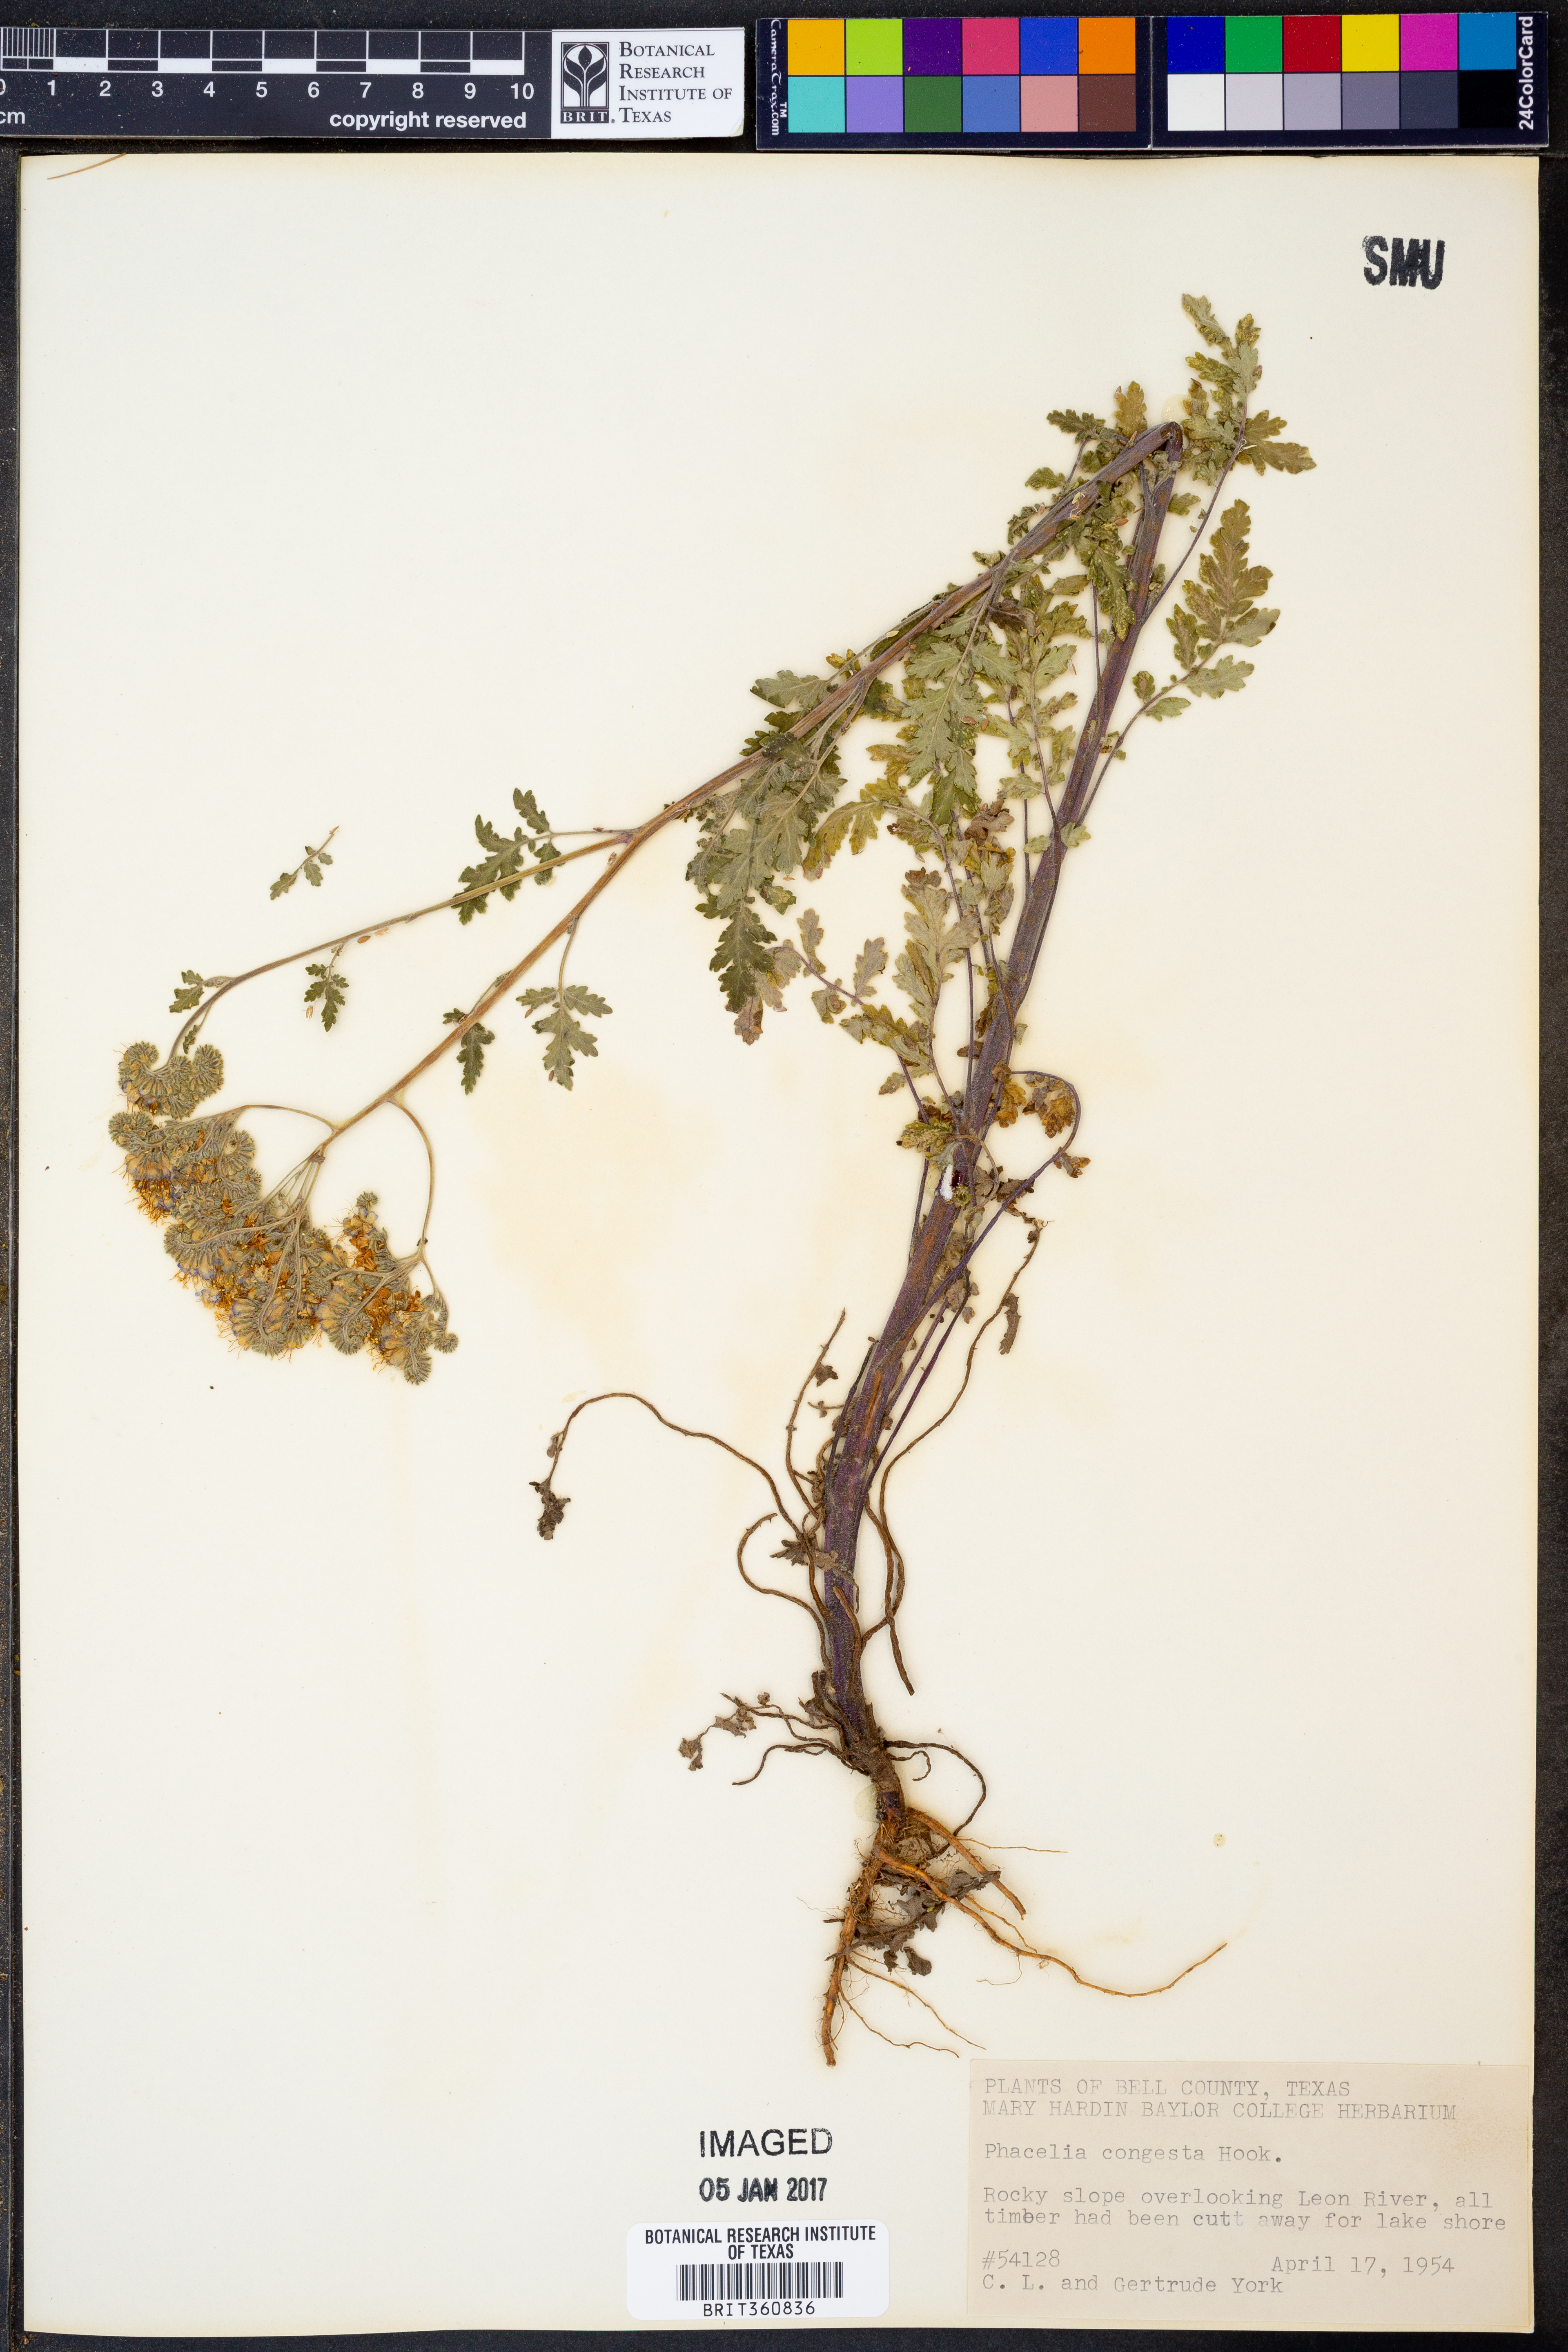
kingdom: Plantae
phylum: Tracheophyta
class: Magnoliopsida
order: Boraginales
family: Hydrophyllaceae
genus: Phacelia
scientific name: Phacelia congesta
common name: Blue curls
